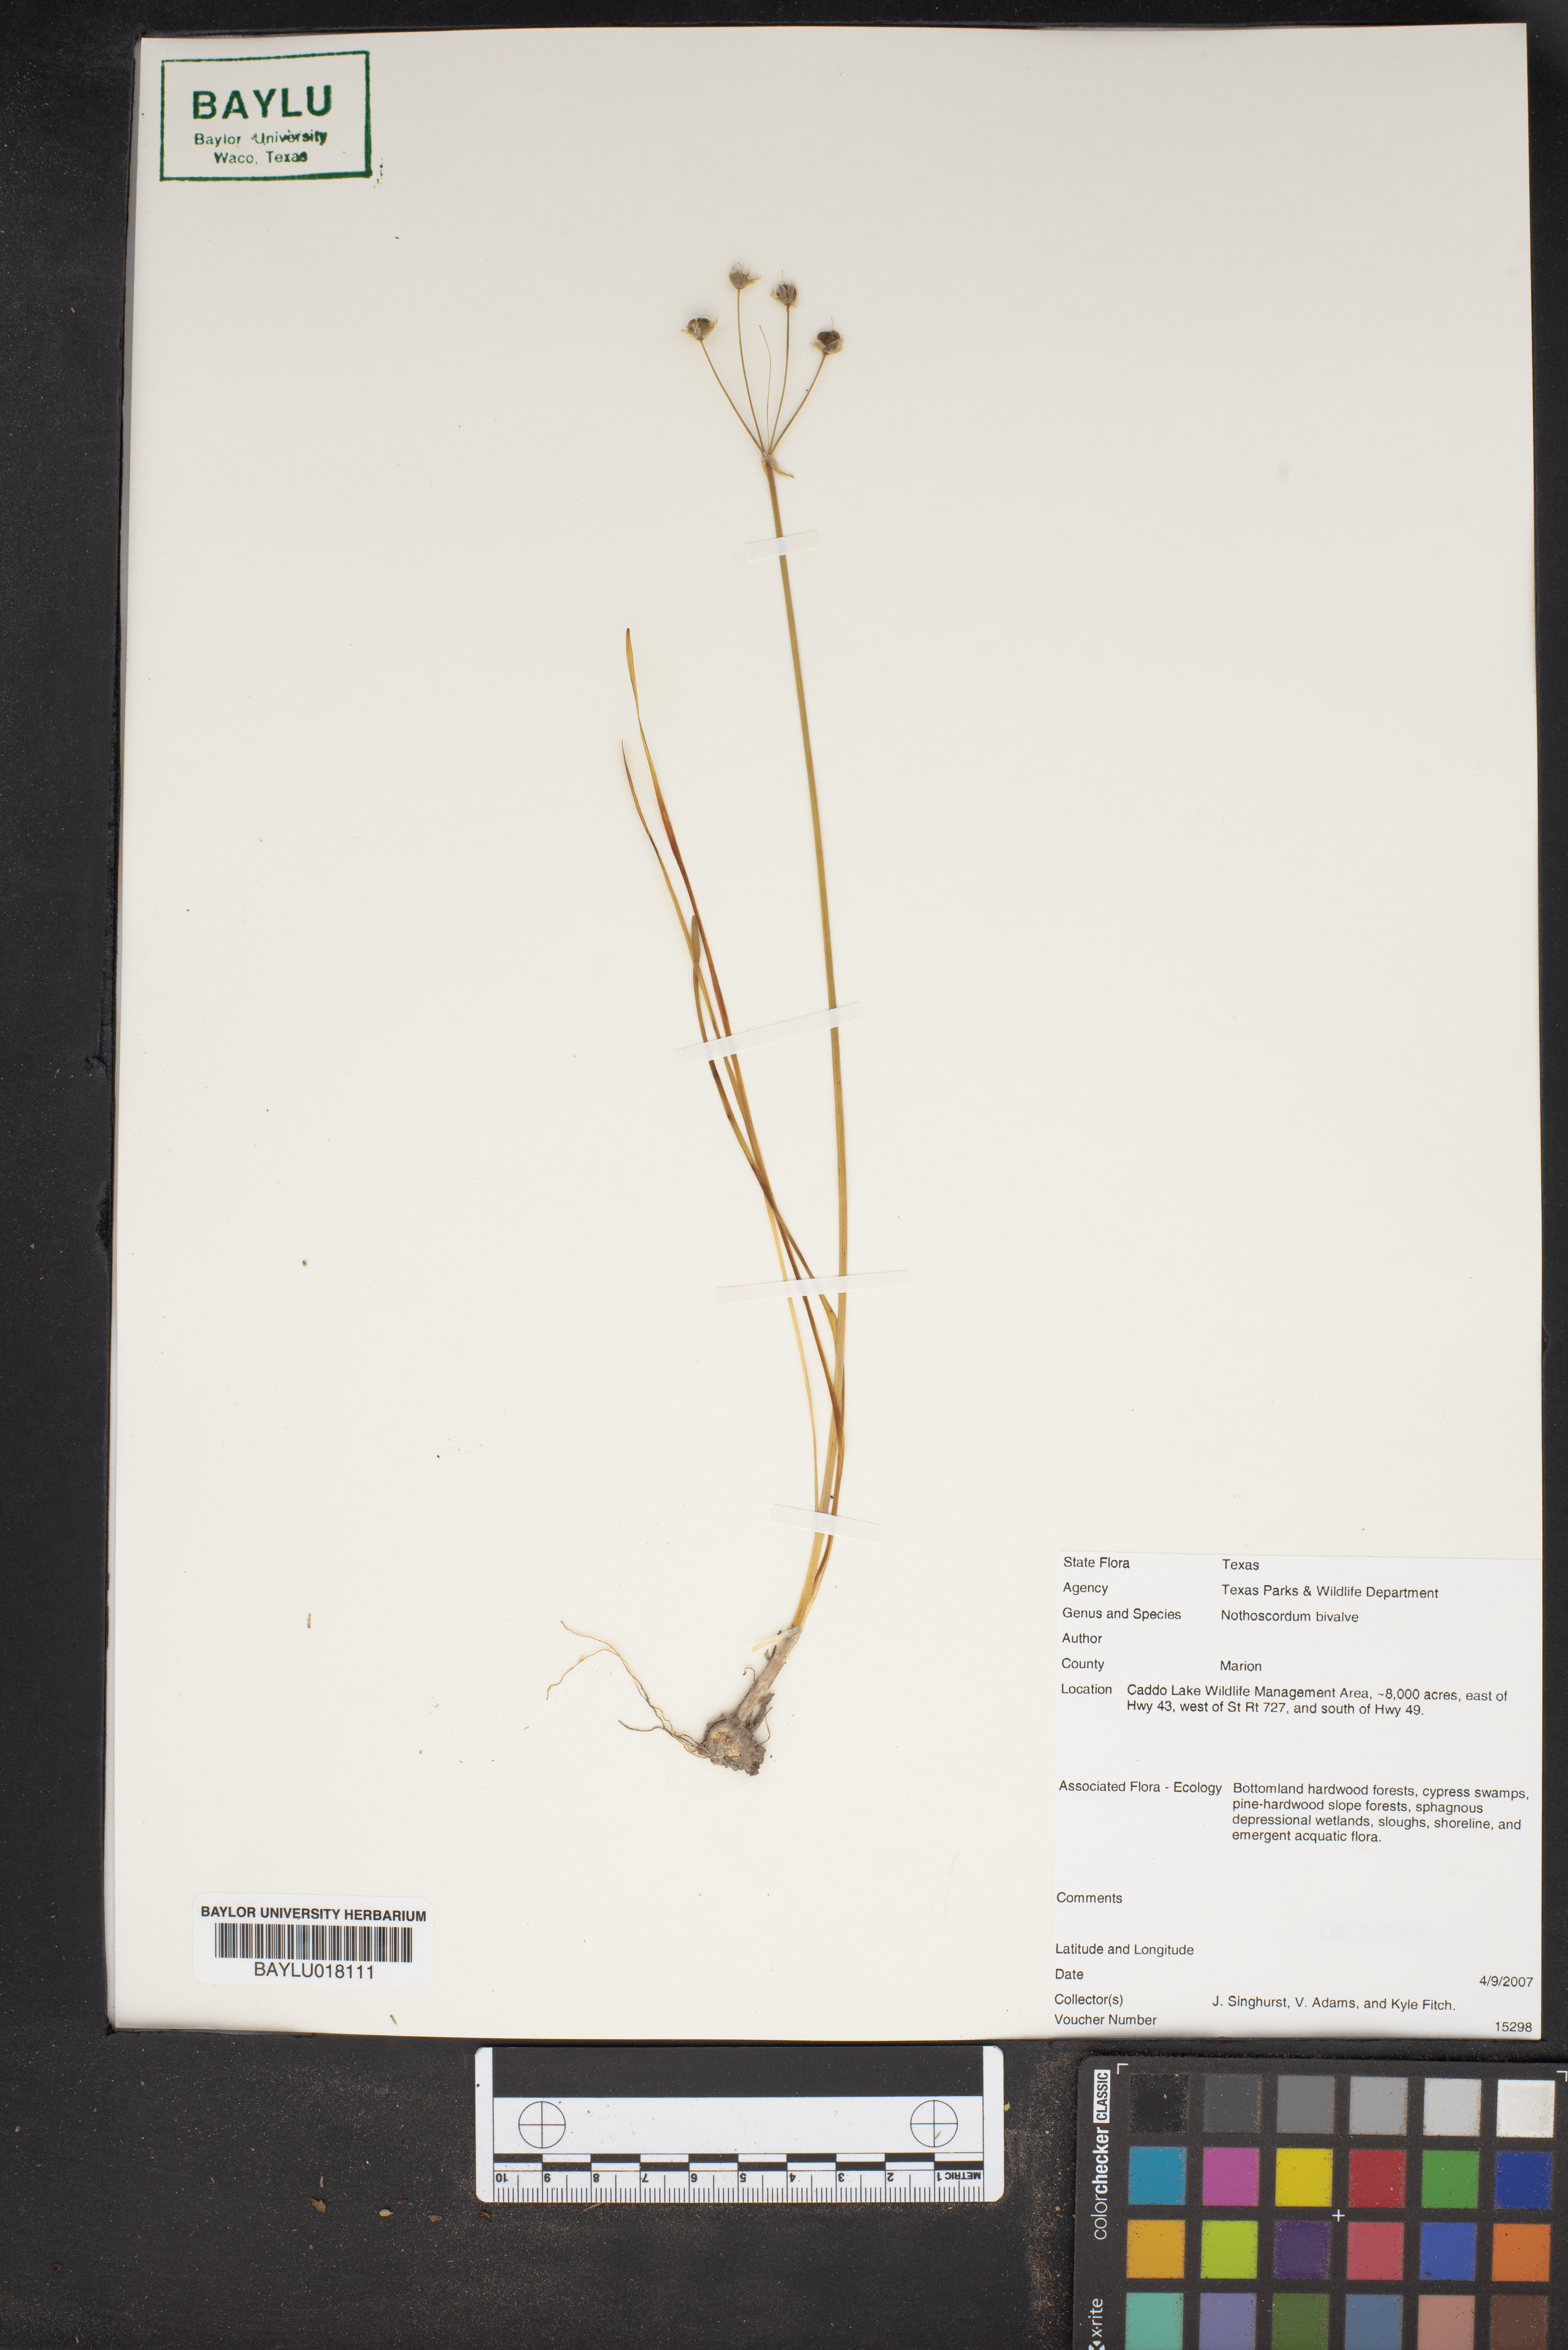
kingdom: Plantae
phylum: Tracheophyta
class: Liliopsida
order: Asparagales
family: Amaryllidaceae
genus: Nothoscordum
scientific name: Nothoscordum bivalve
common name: Crow-poison
